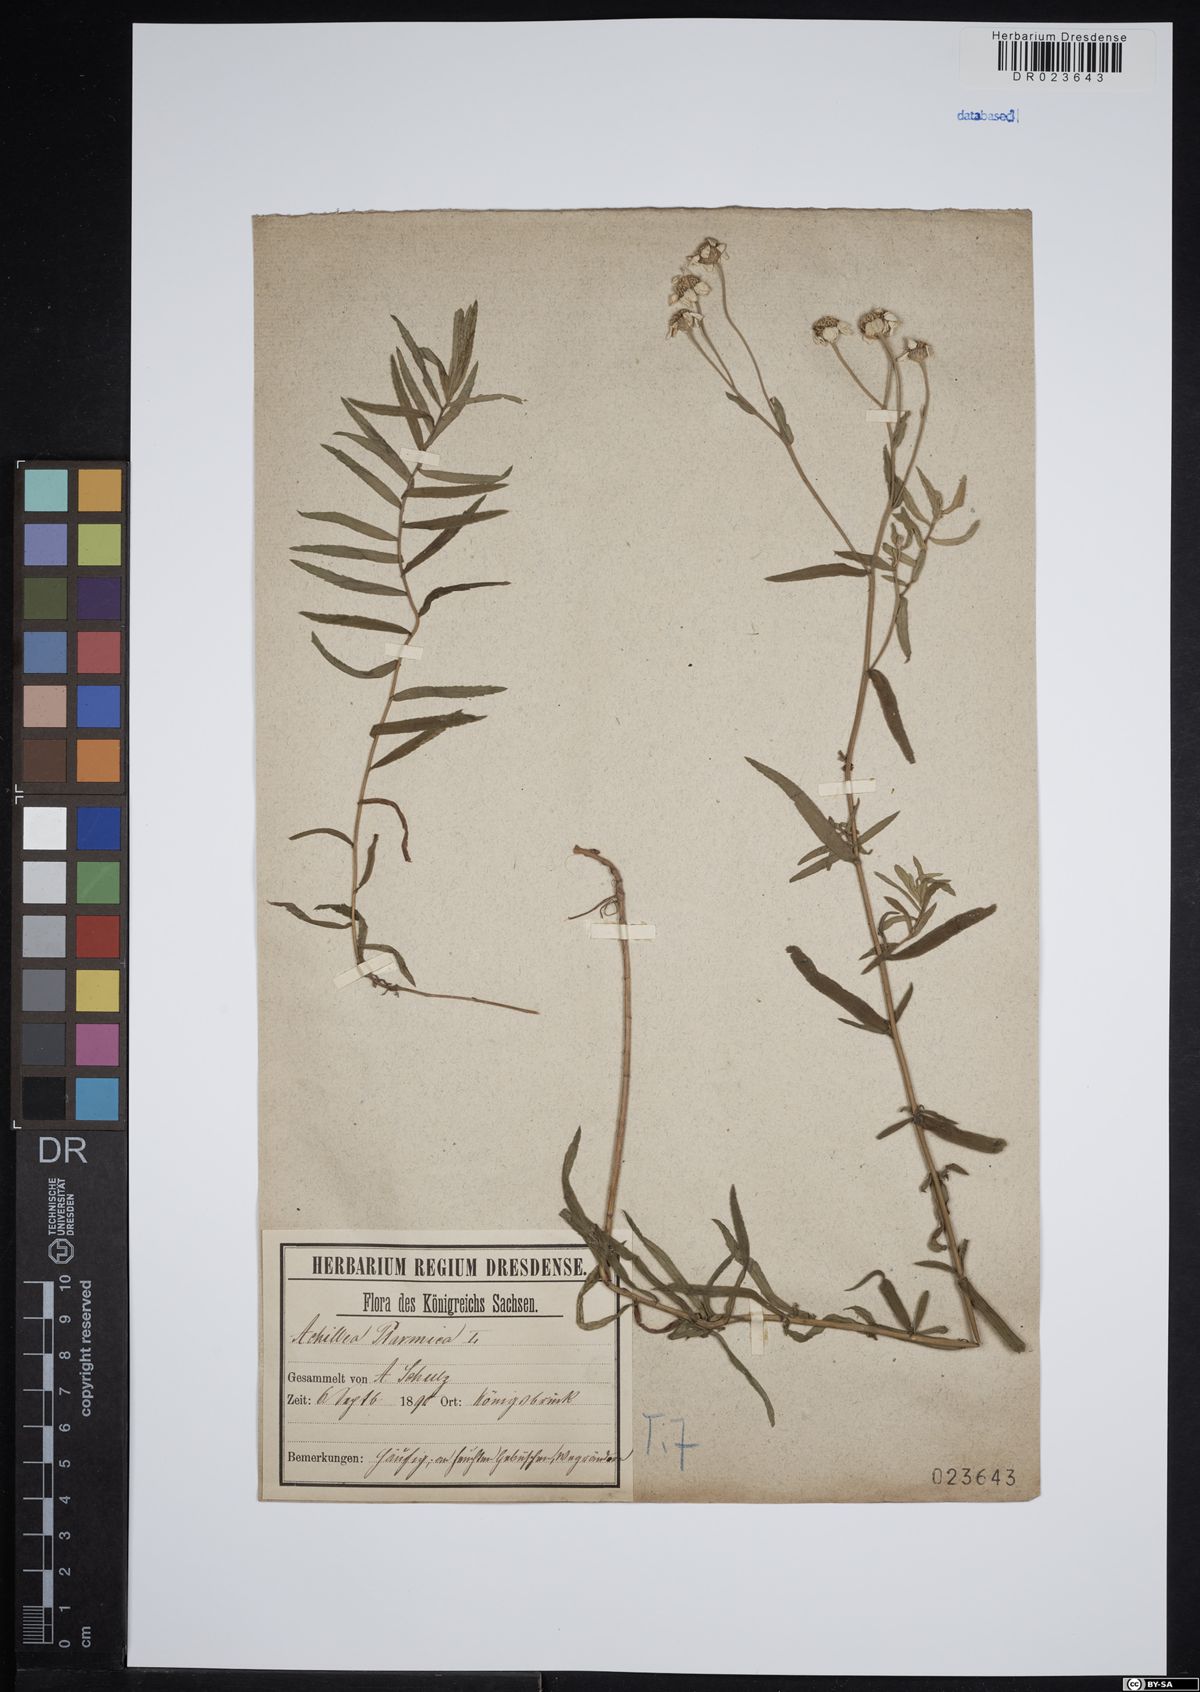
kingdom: Plantae
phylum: Tracheophyta
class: Magnoliopsida
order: Asterales
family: Asteraceae
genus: Achillea
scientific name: Achillea ptarmica
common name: Sneezeweed
